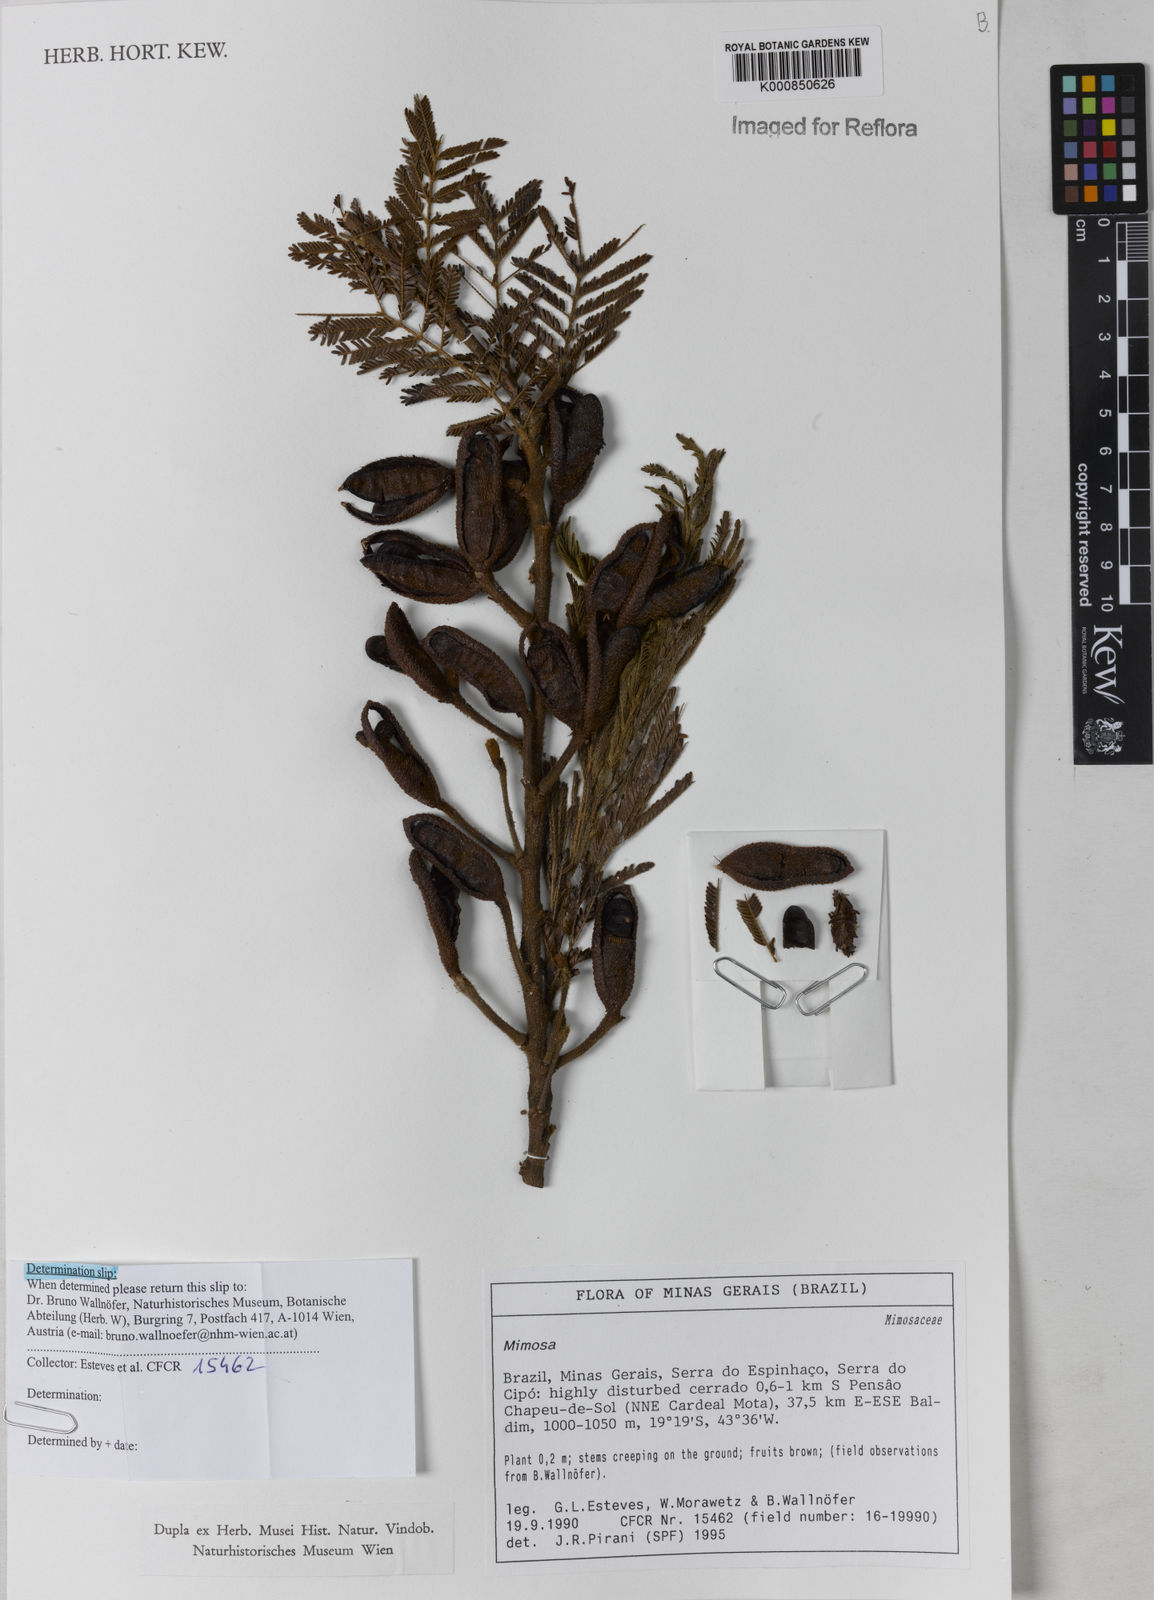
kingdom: Plantae
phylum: Tracheophyta
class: Magnoliopsida
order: Fabales
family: Fabaceae
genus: Mimosa
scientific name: Mimosa foliolosa
